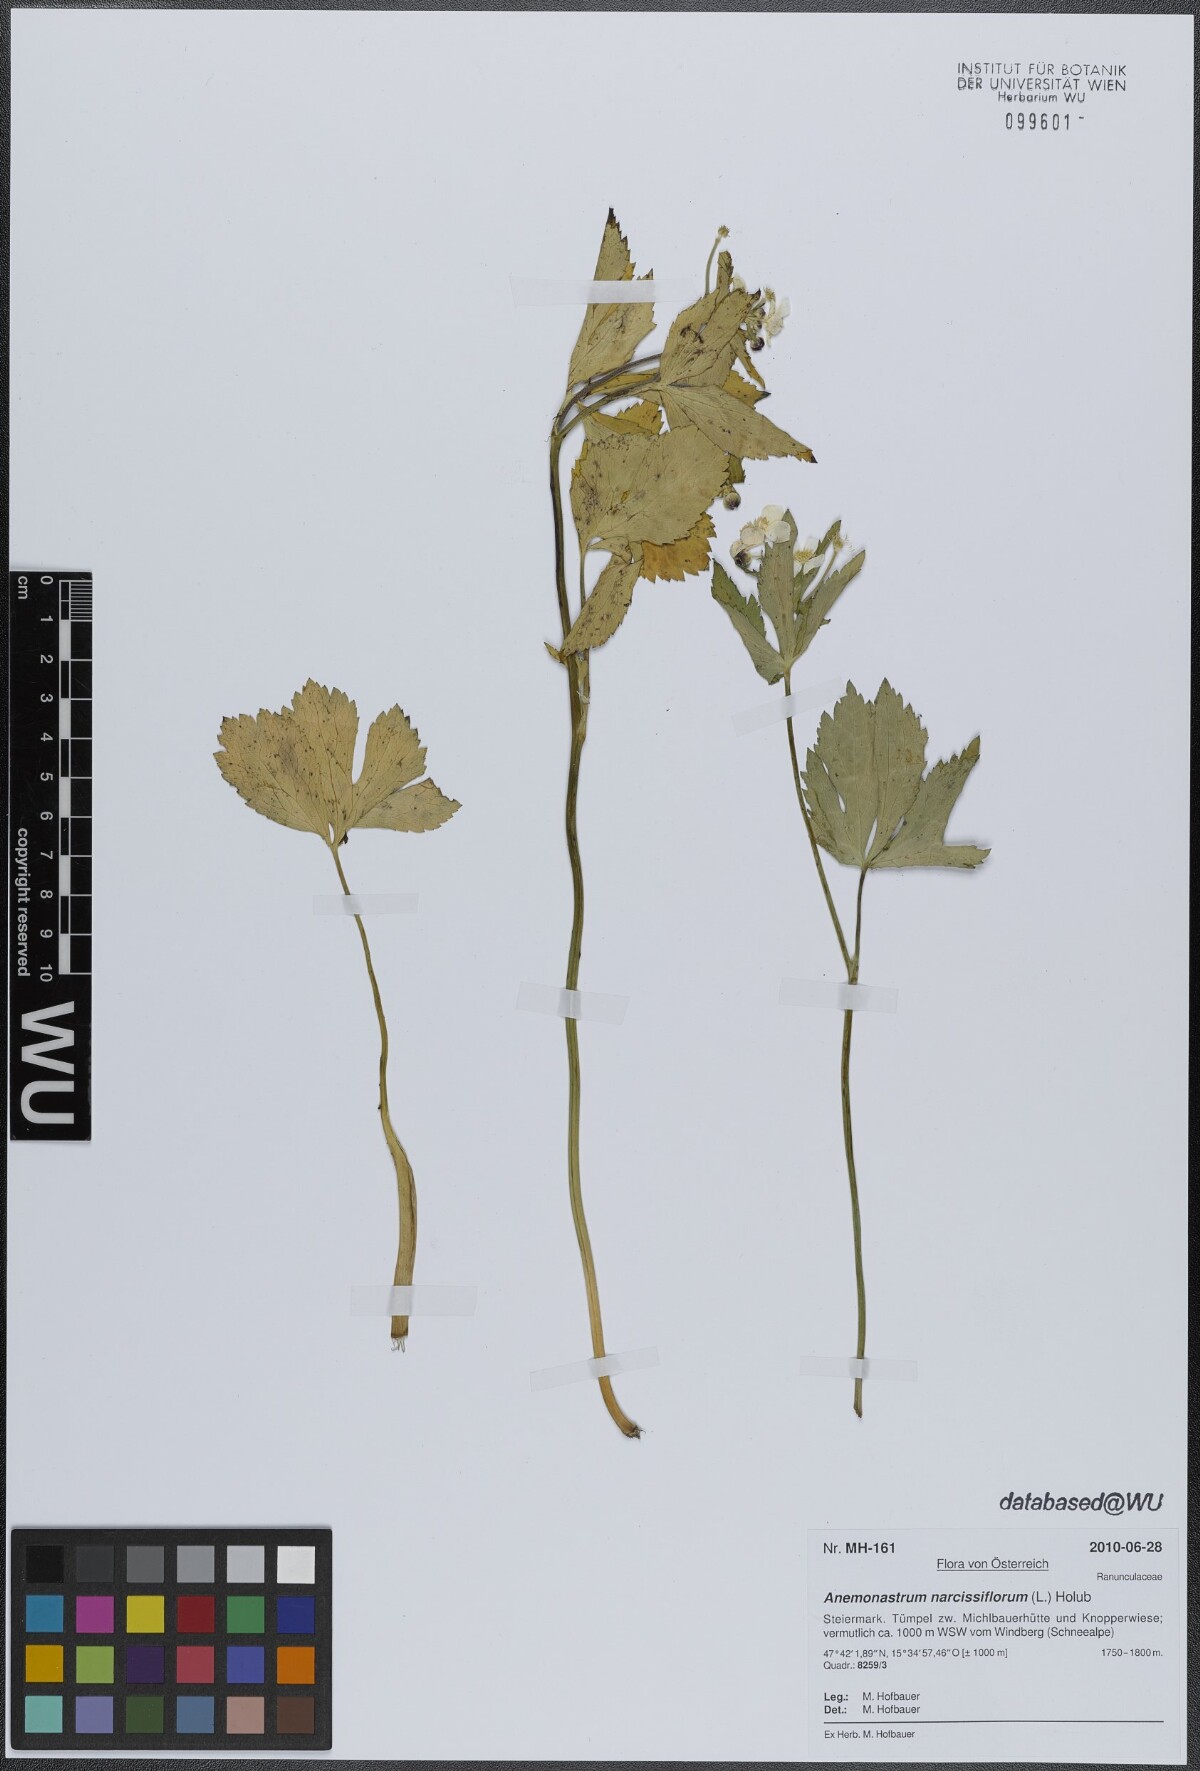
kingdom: Plantae
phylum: Tracheophyta
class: Magnoliopsida
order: Ranunculales
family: Ranunculaceae
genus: Anemonastrum
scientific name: Anemonastrum narcissiflorum
